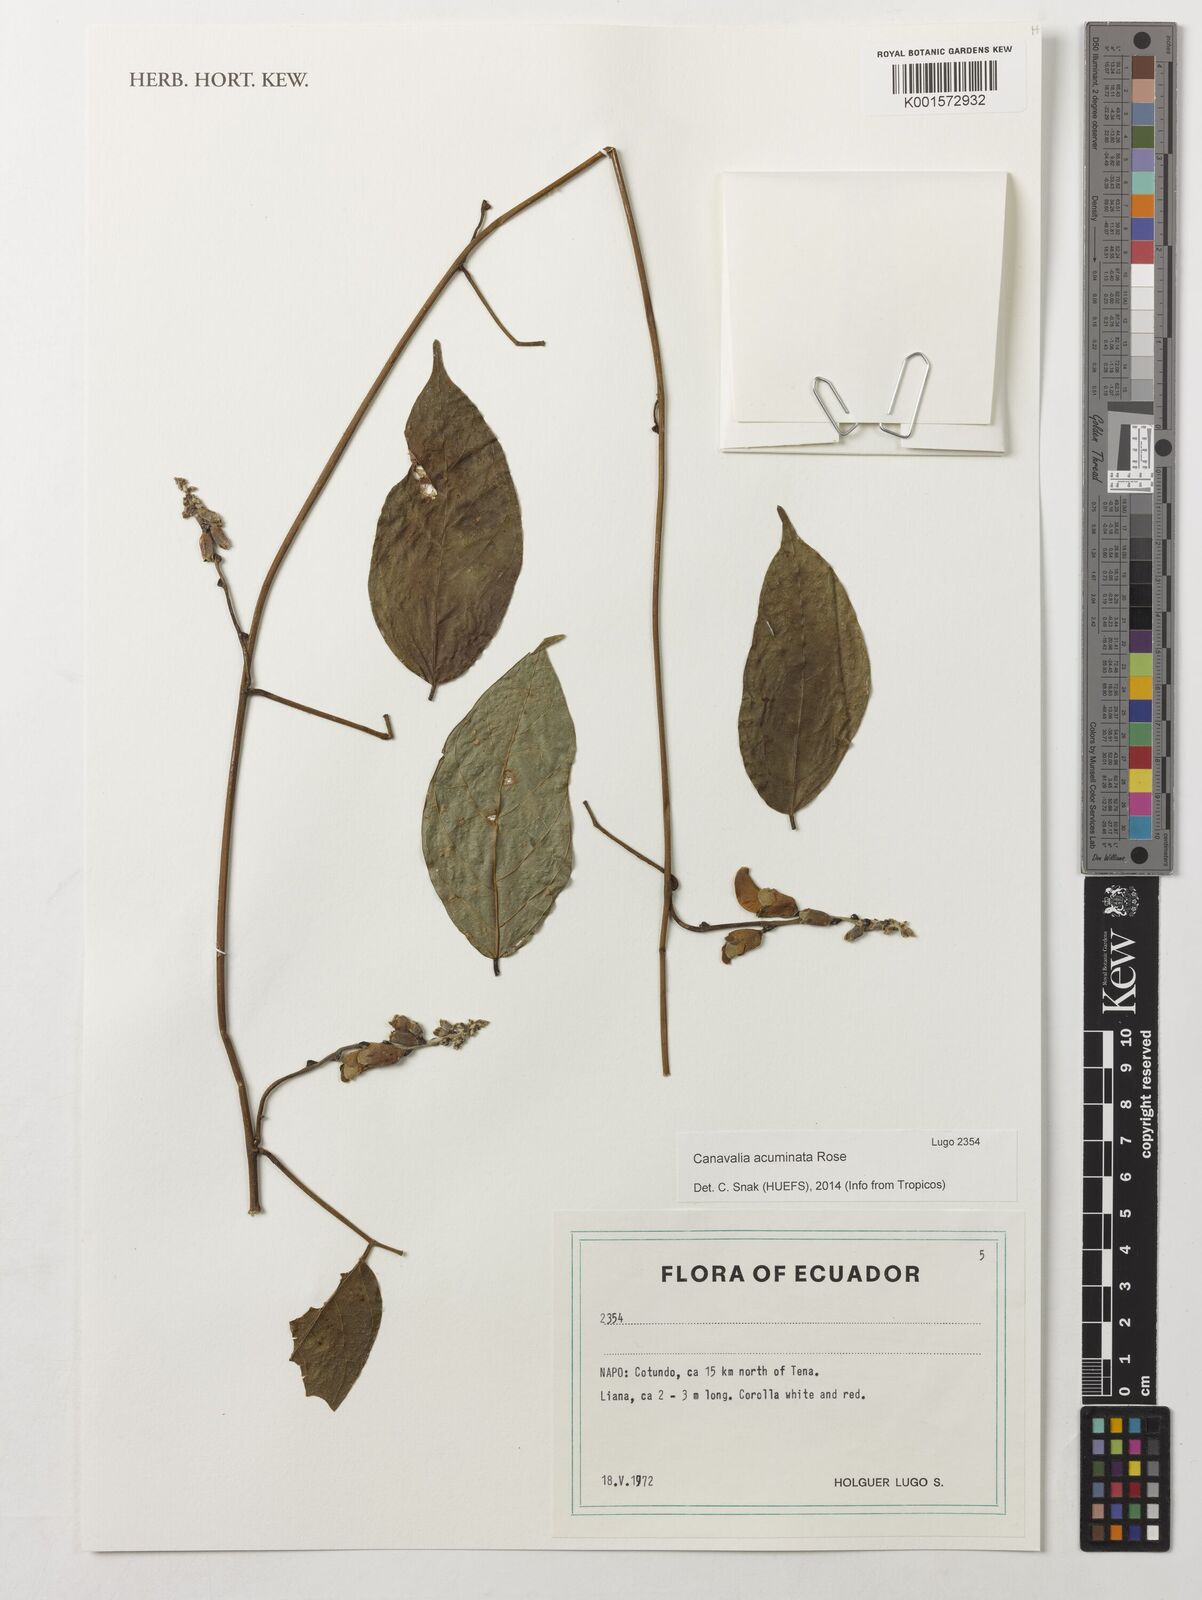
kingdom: Plantae
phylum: Tracheophyta
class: Magnoliopsida
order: Fabales
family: Fabaceae
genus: Canavalia
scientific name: Canavalia acuminata
